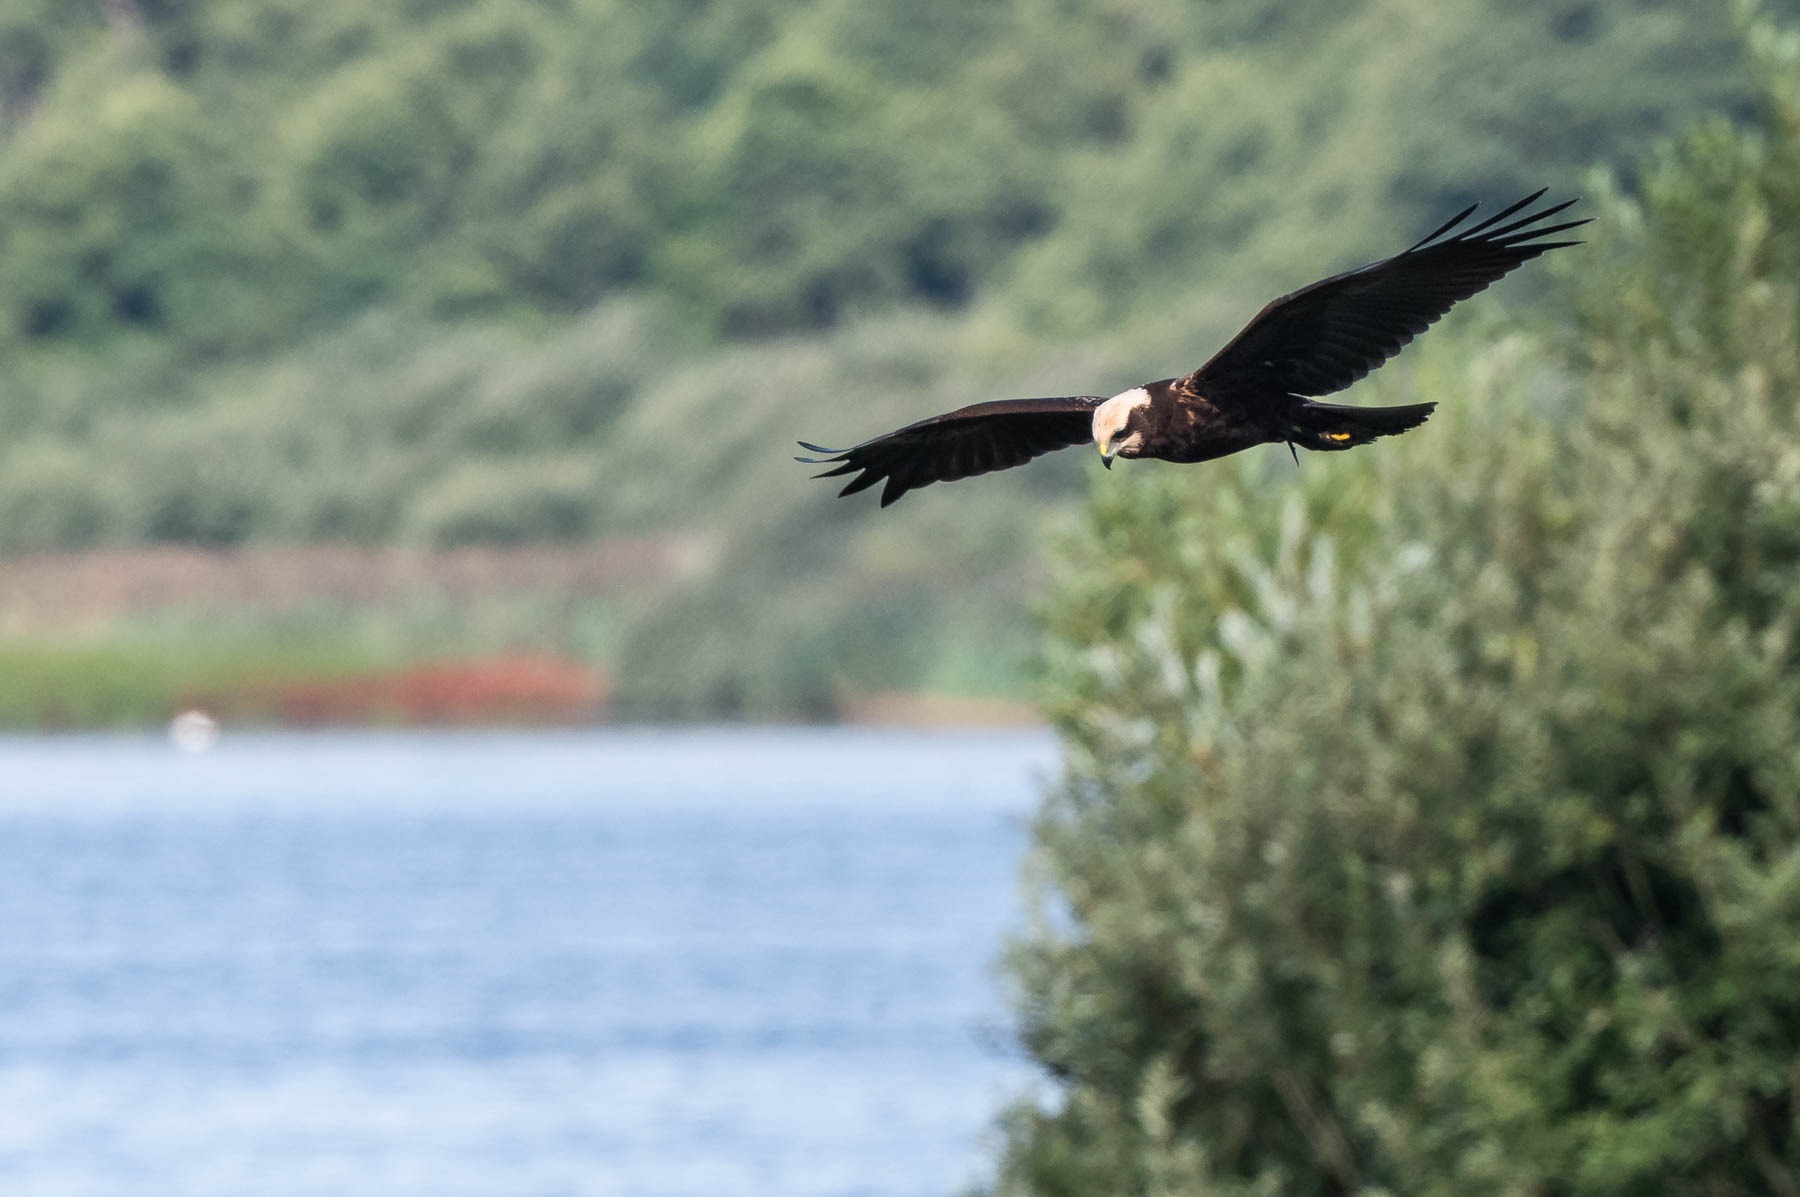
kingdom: Animalia
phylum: Chordata
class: Aves
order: Accipitriformes
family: Accipitridae
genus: Circus
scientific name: Circus aeruginosus
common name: Rørhøg
